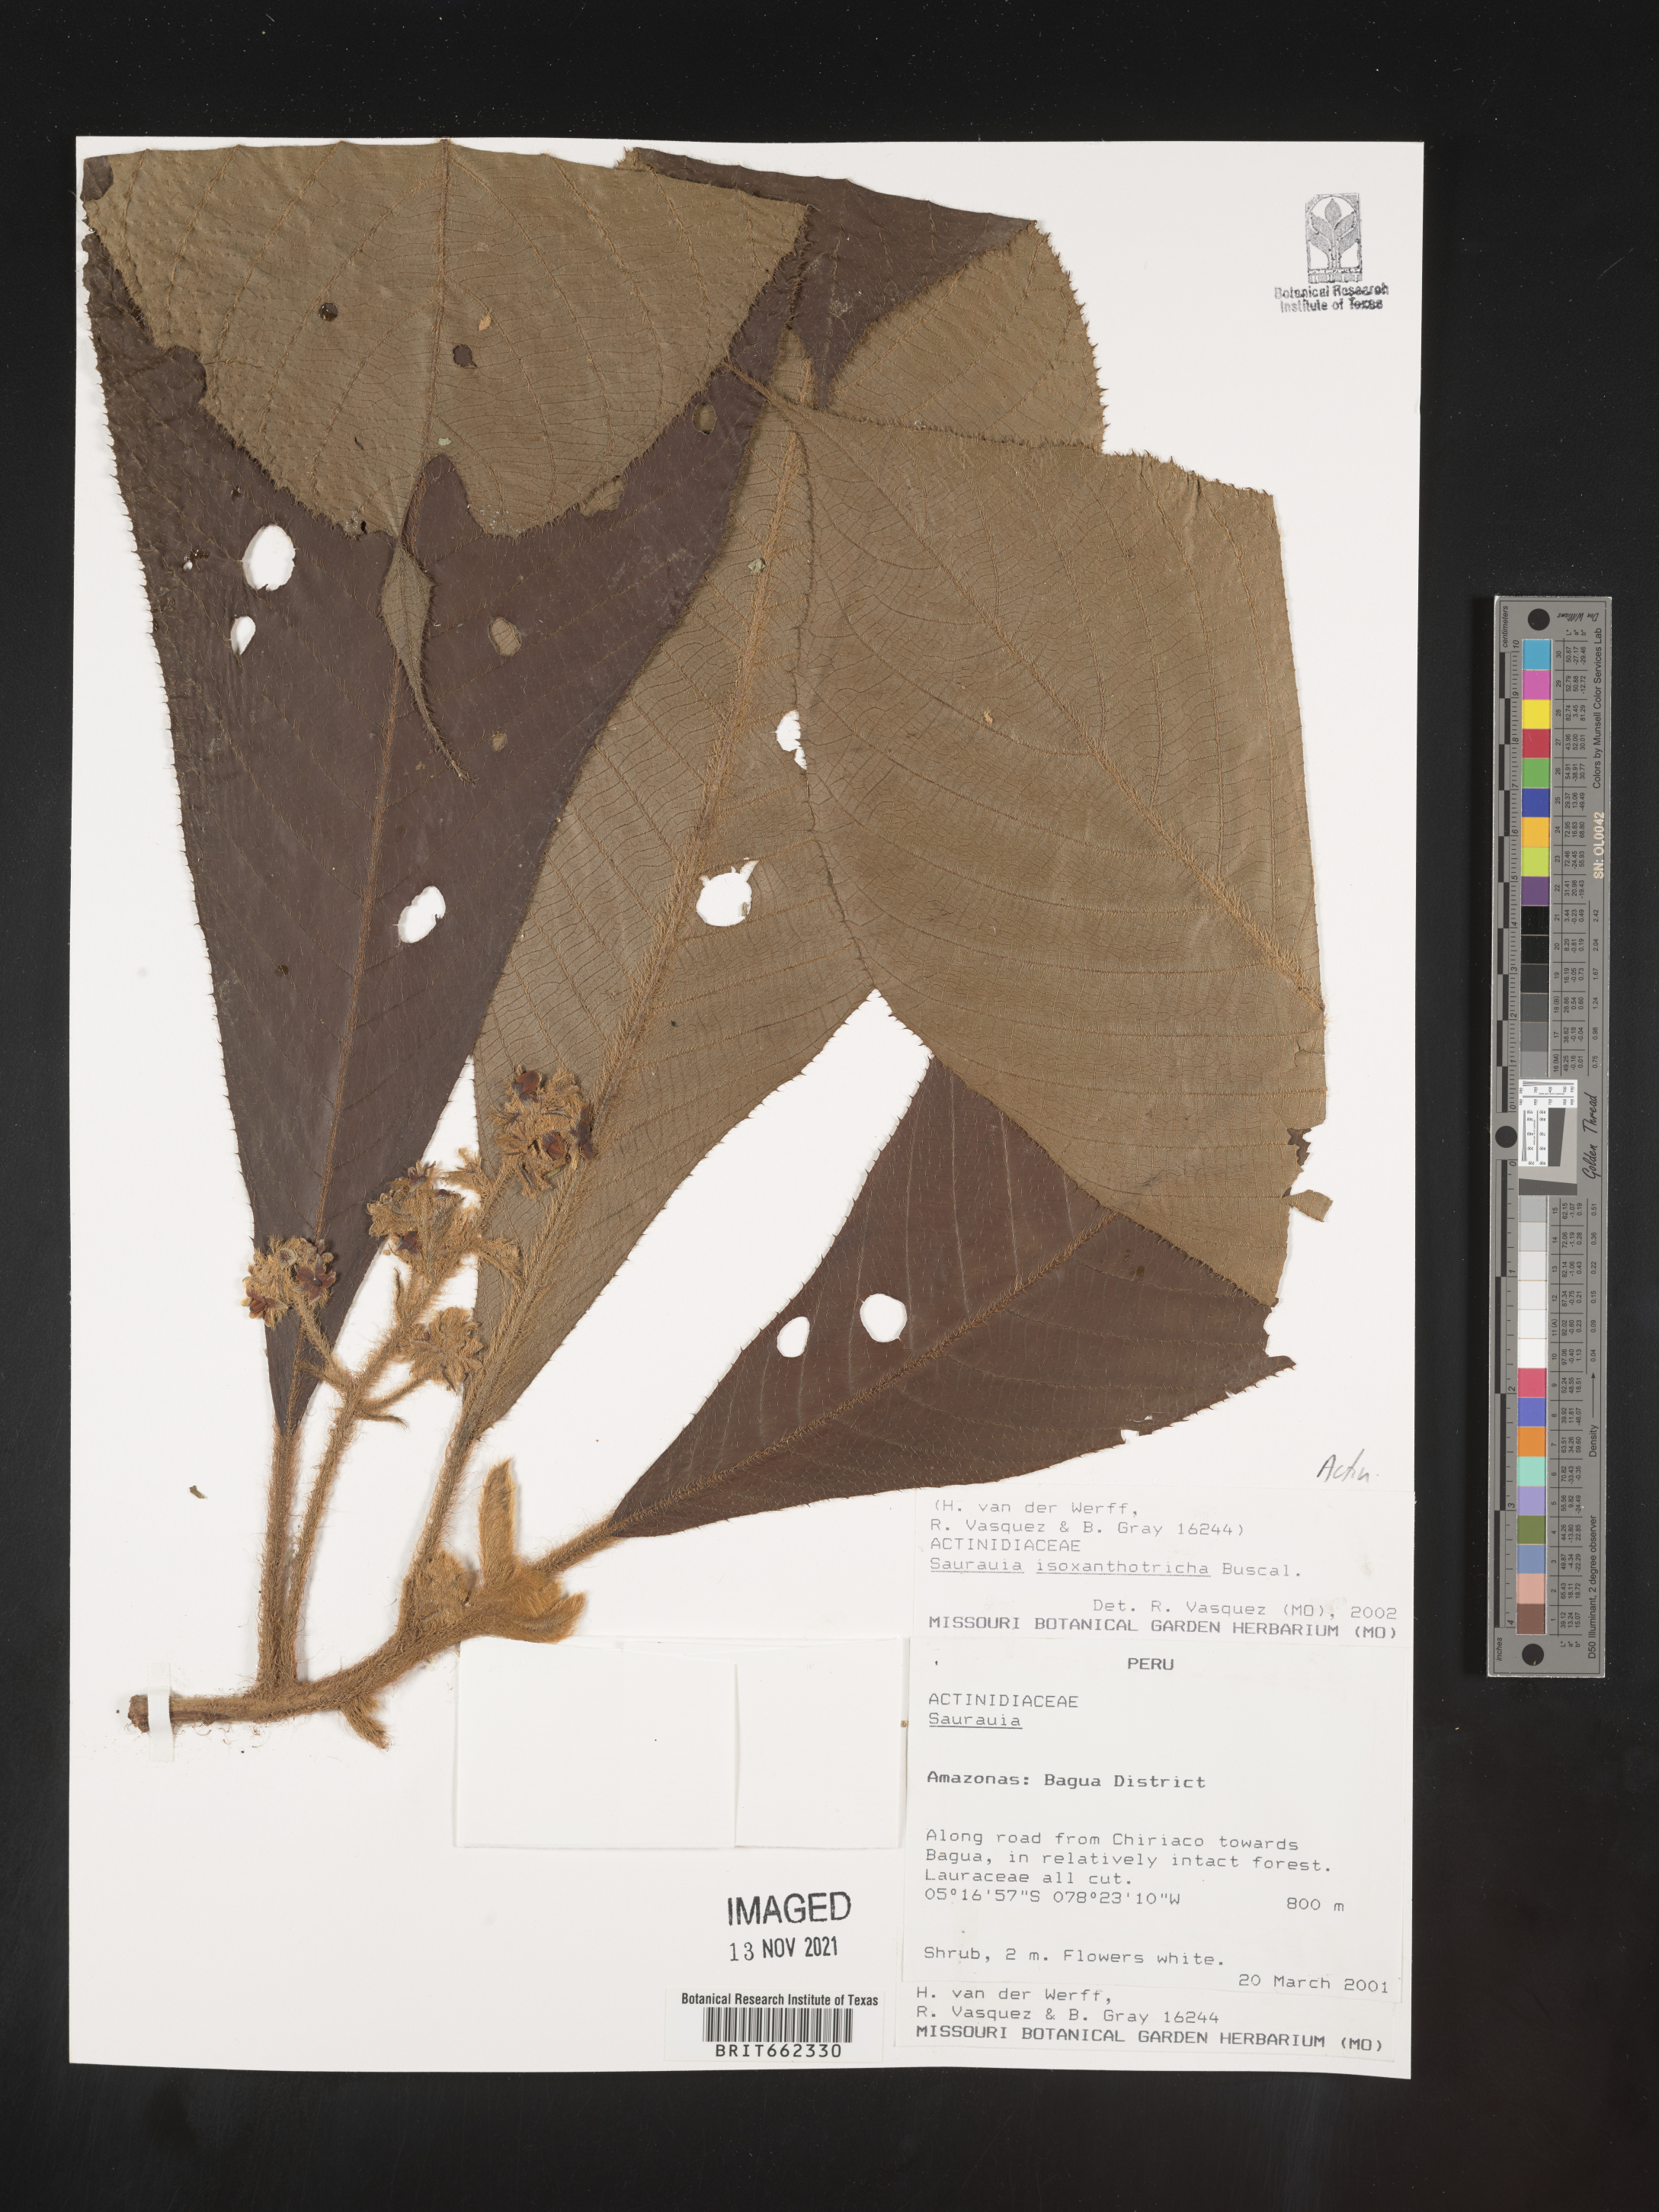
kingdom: Plantae
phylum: Tracheophyta
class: Magnoliopsida
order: Ericales
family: Actinidiaceae
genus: Saurauia
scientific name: Saurauia
